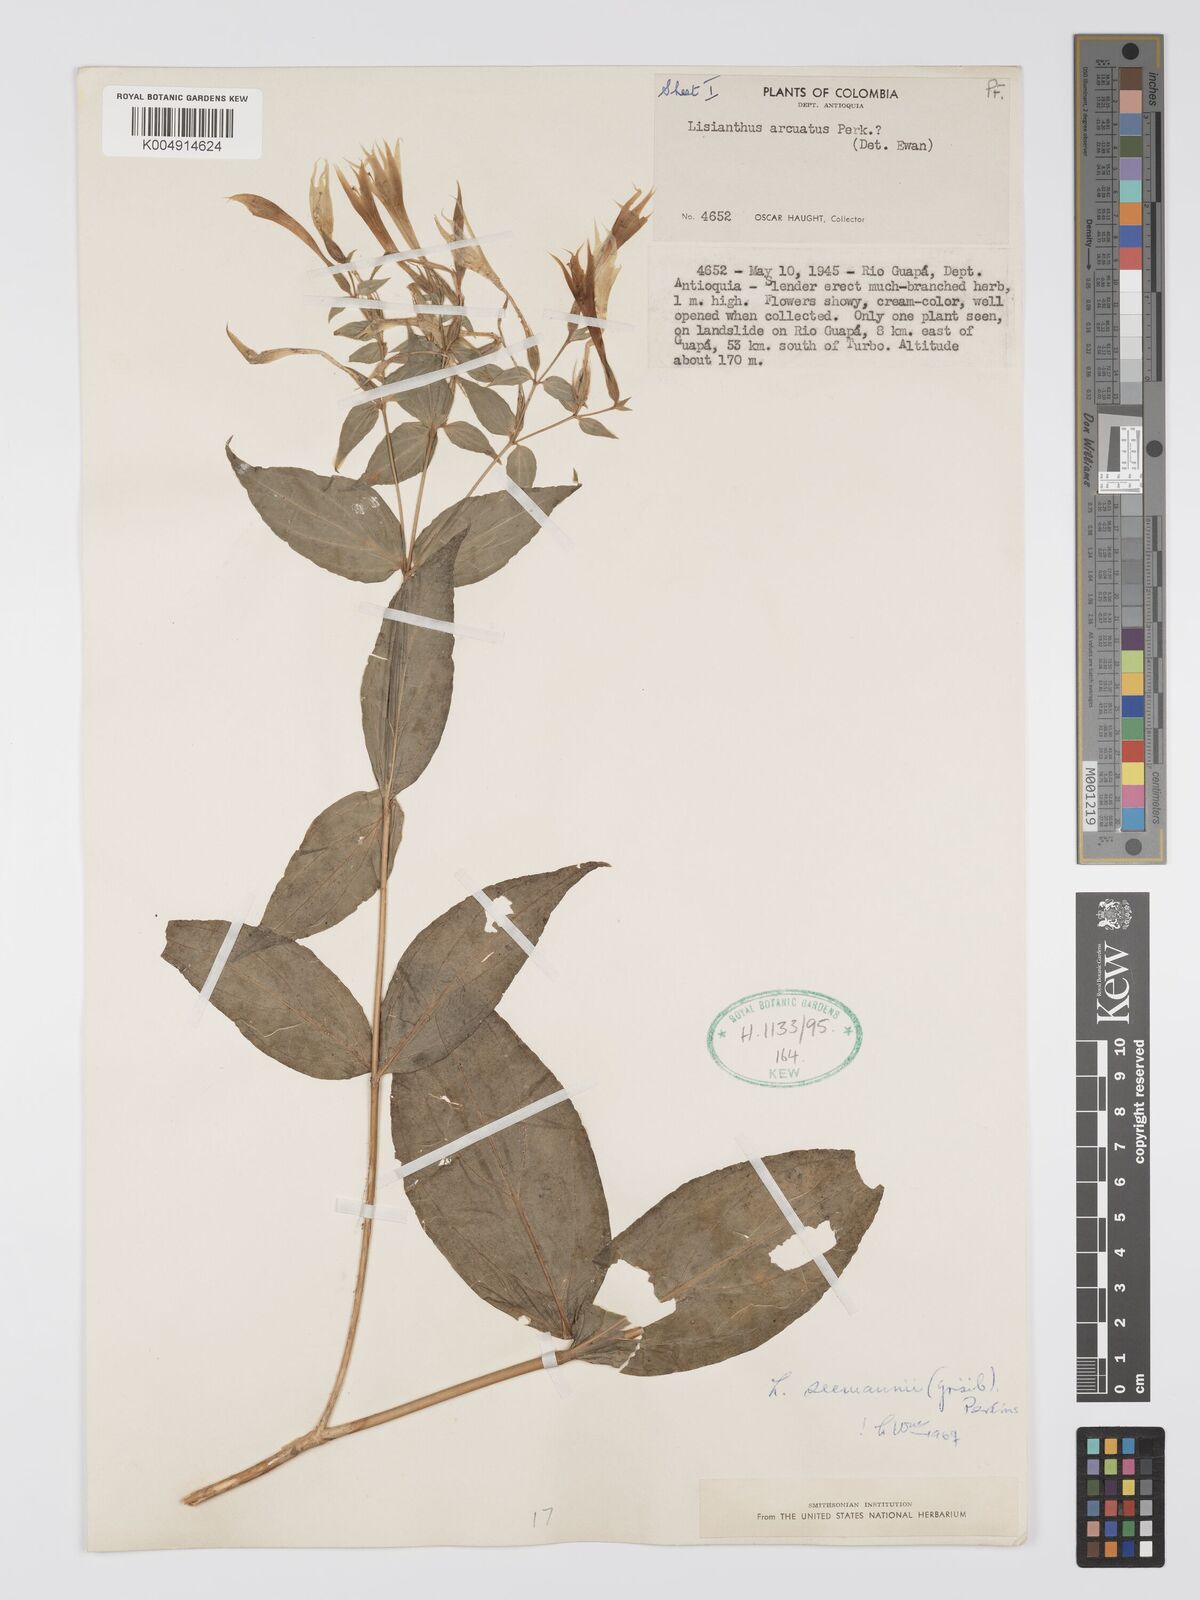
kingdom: Plantae
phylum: Tracheophyta
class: Magnoliopsida
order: Gentianales
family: Gentianaceae
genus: Lisianthus
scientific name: Lisianthus seemannii
